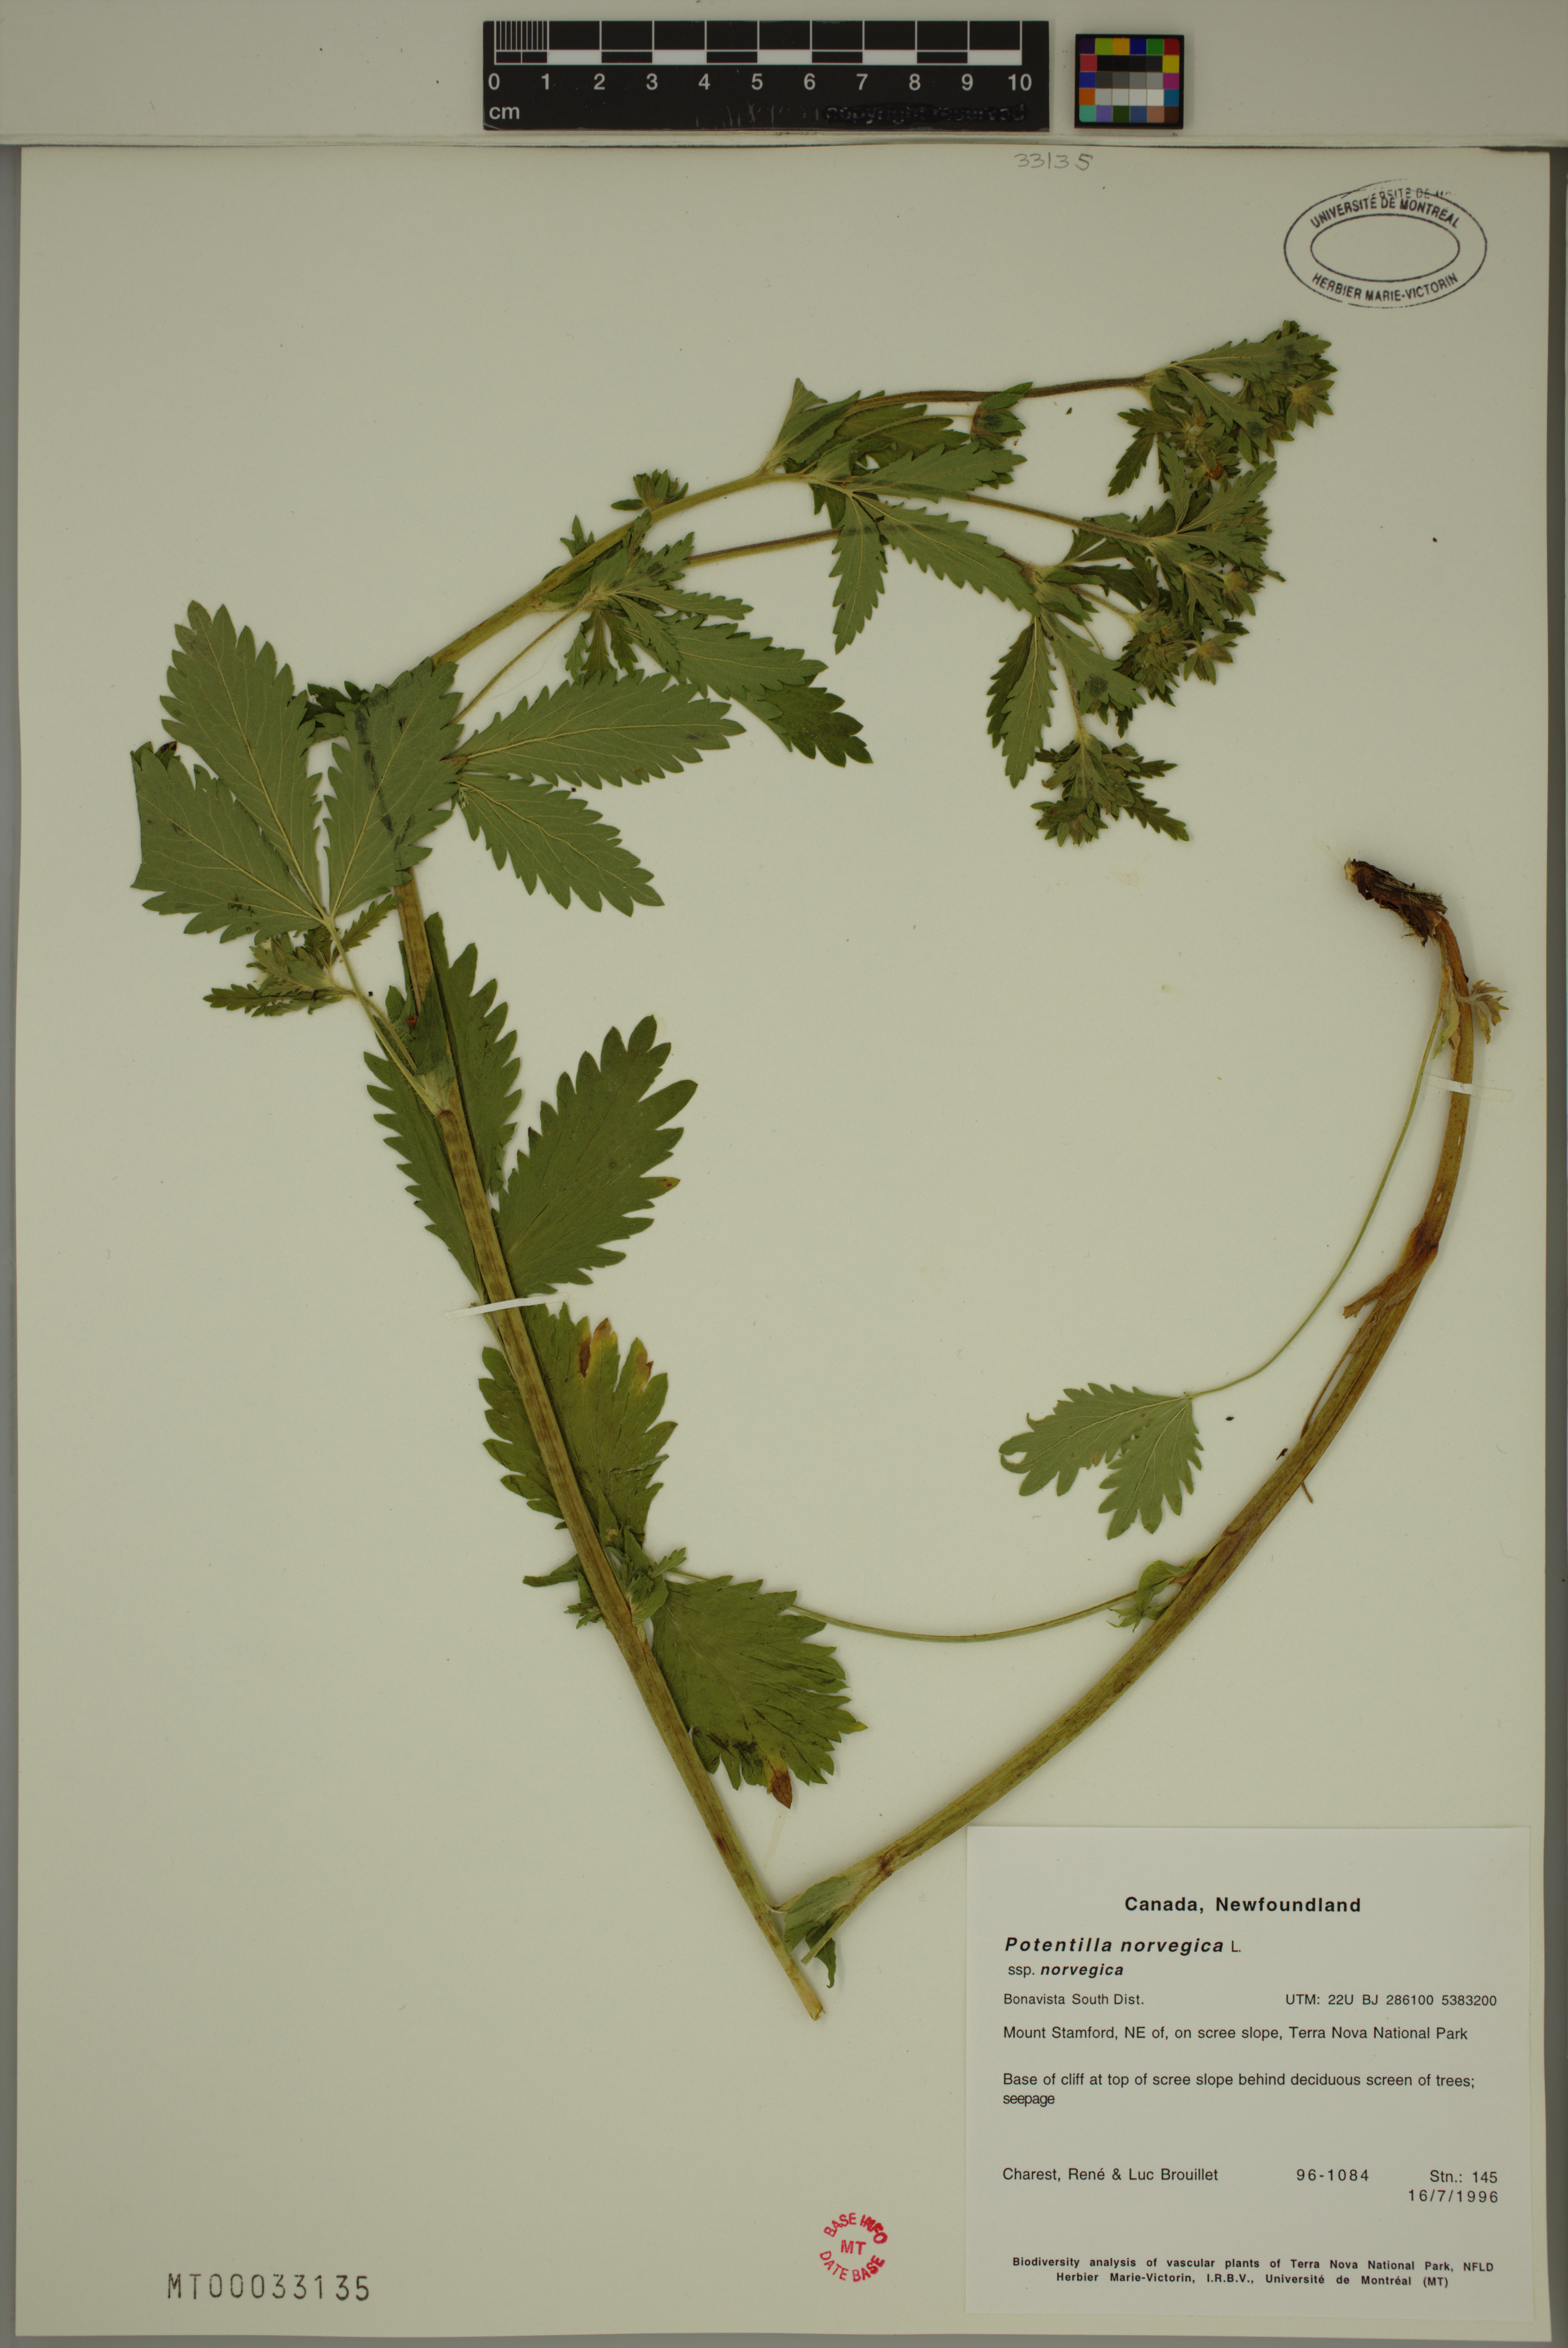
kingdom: Plantae
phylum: Tracheophyta
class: Magnoliopsida
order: Rosales
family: Rosaceae
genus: Potentilla
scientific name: Potentilla norvegica
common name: Ternate-leaved cinquefoil
